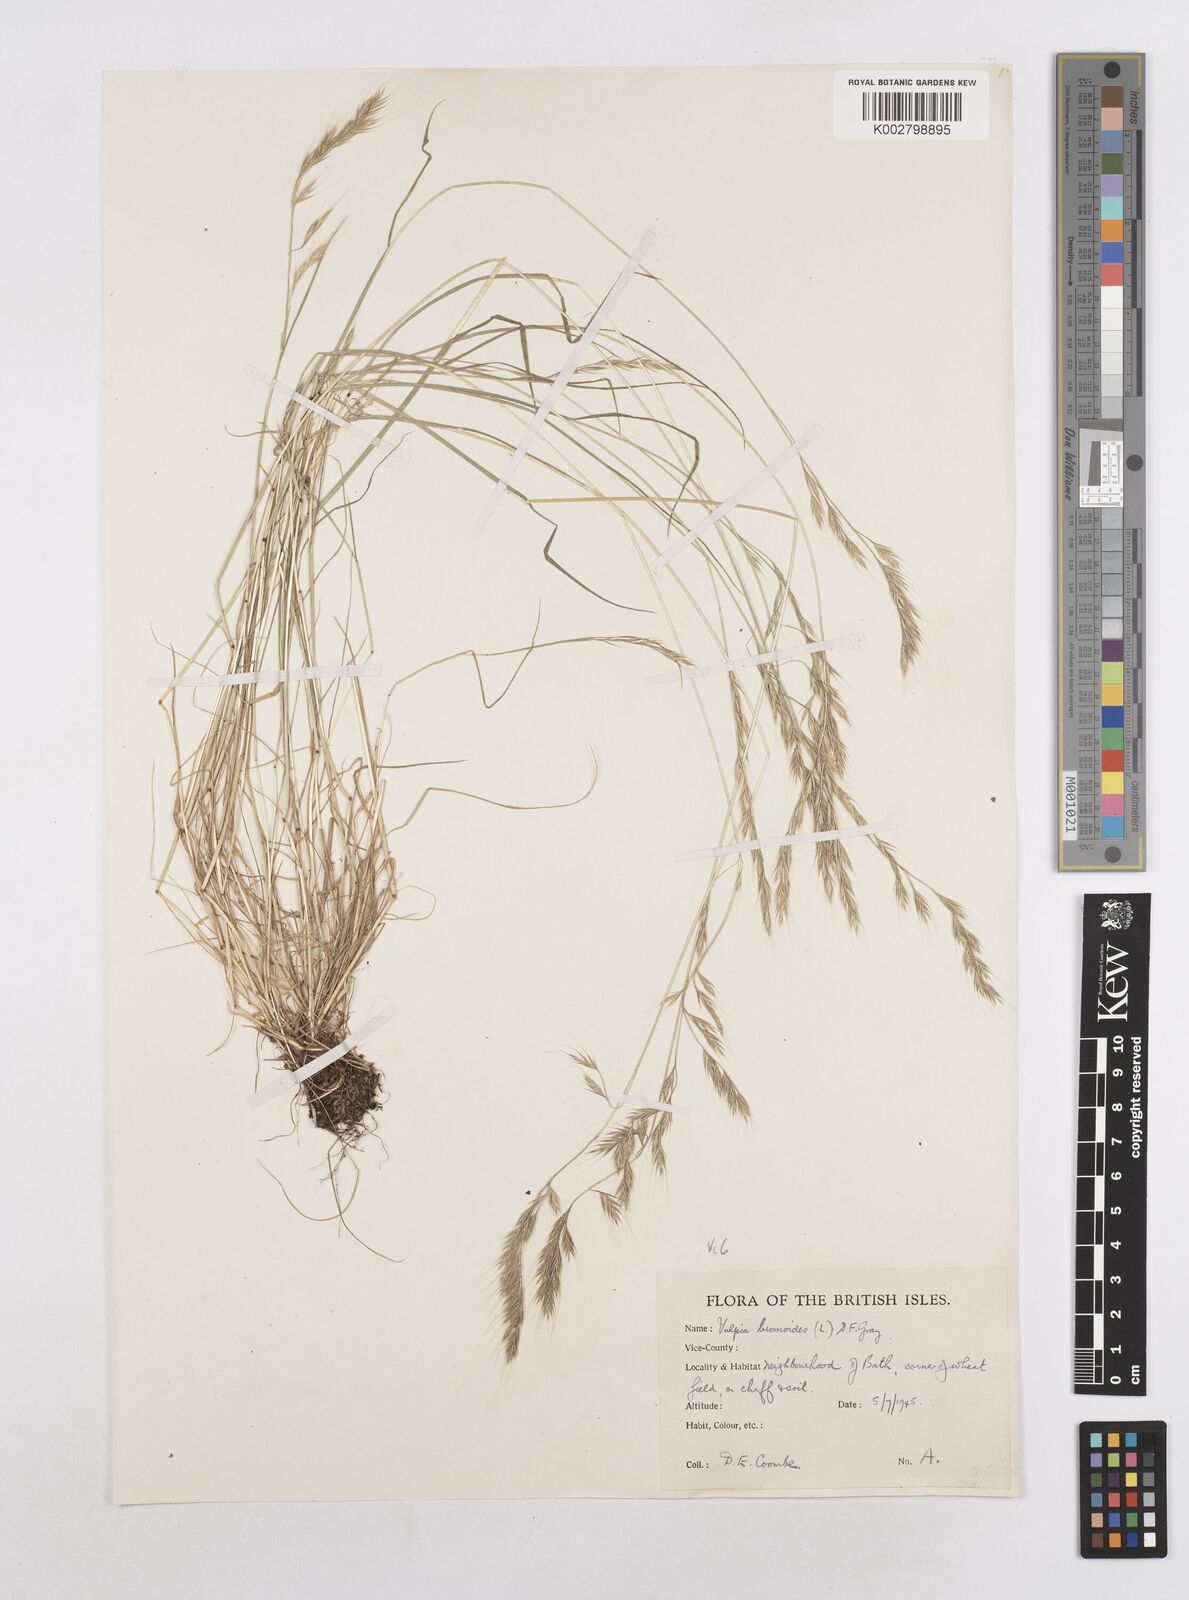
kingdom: Plantae
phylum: Tracheophyta
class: Liliopsida
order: Poales
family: Poaceae
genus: Festuca
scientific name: Festuca bromoides
